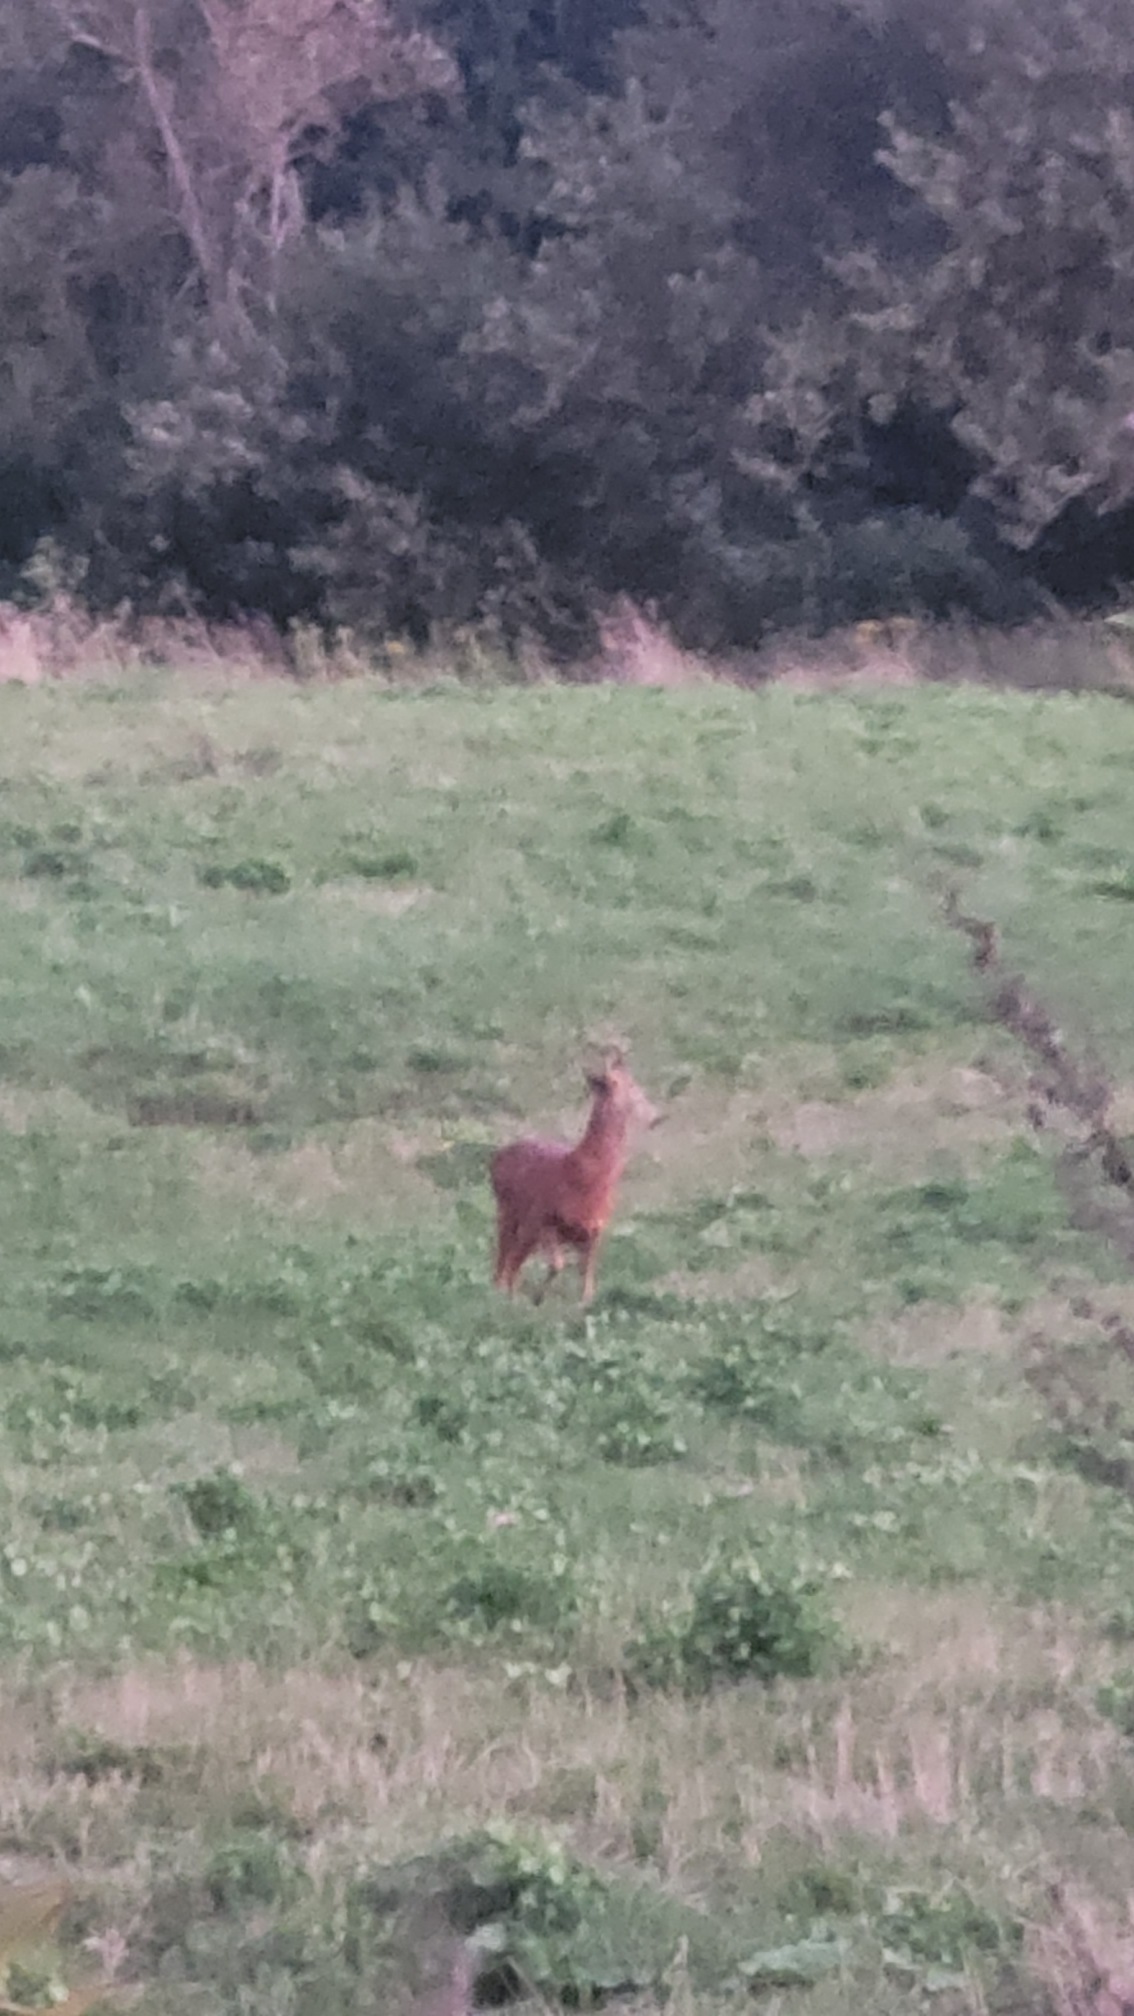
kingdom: Animalia
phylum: Chordata
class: Mammalia
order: Artiodactyla
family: Cervidae
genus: Capreolus
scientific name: Capreolus capreolus
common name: Rådyr
